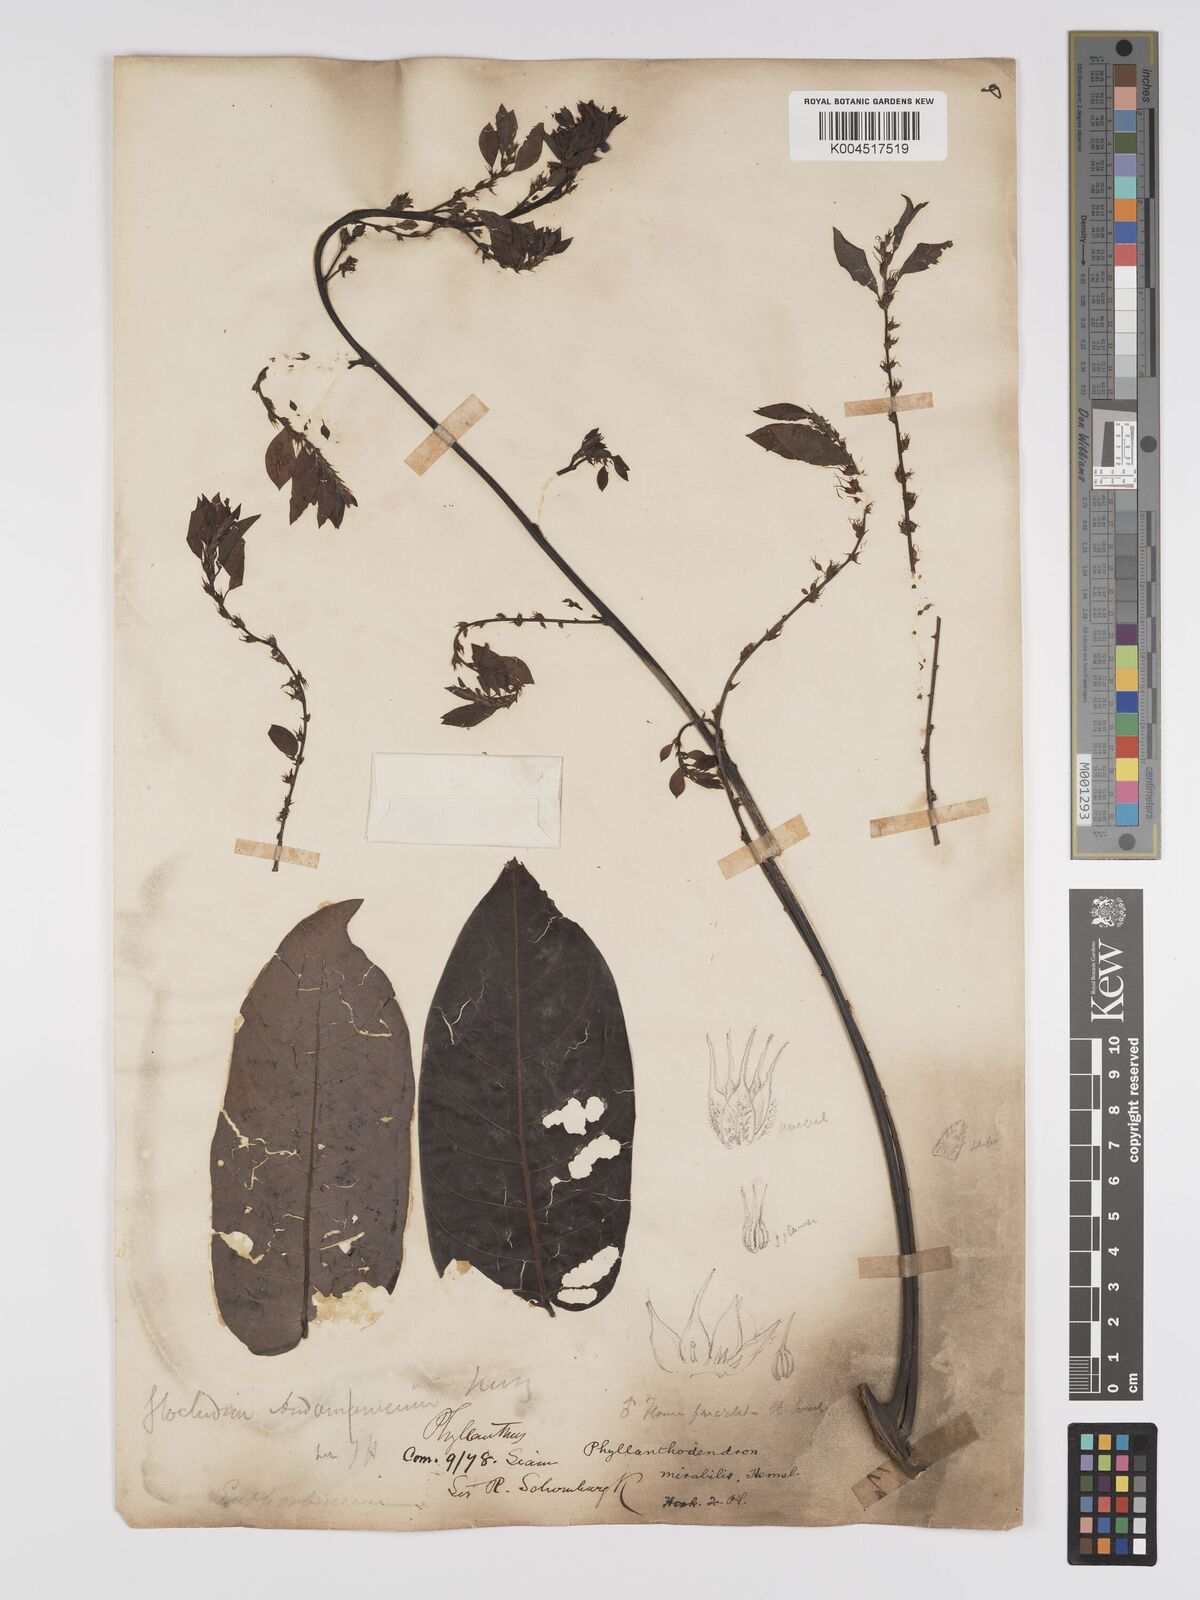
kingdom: Plantae
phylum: Tracheophyta
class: Magnoliopsida
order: Malpighiales
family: Phyllanthaceae
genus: Phyllanthus
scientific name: Phyllanthus mirabilis
